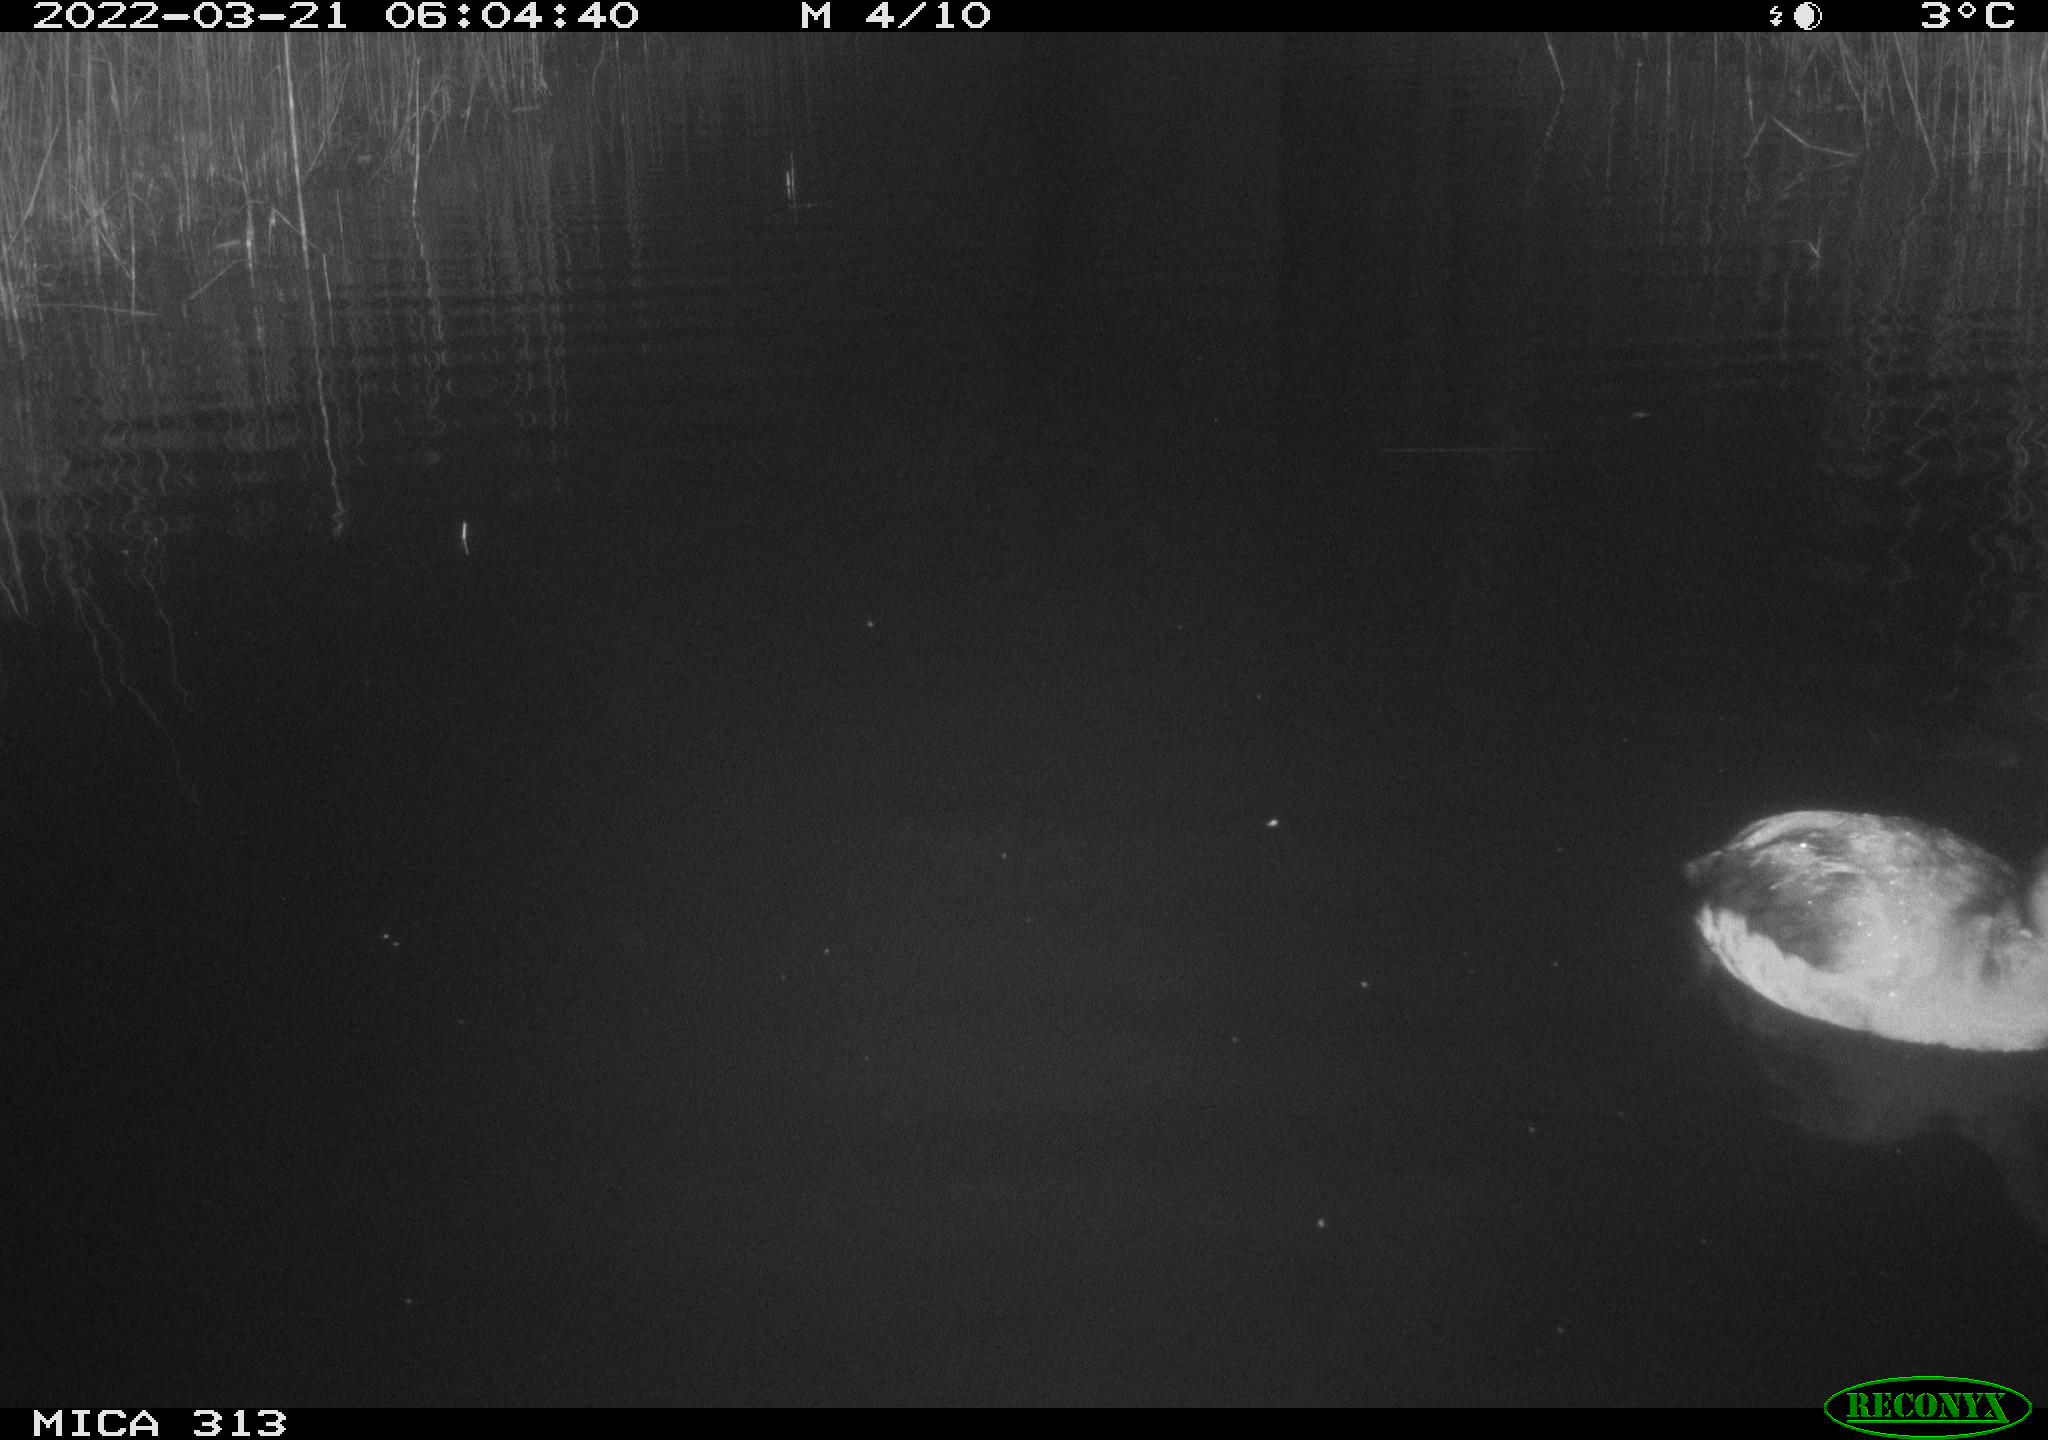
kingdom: Animalia
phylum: Chordata
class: Aves
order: Gruiformes
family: Rallidae
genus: Fulica
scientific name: Fulica atra
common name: Eurasian coot
